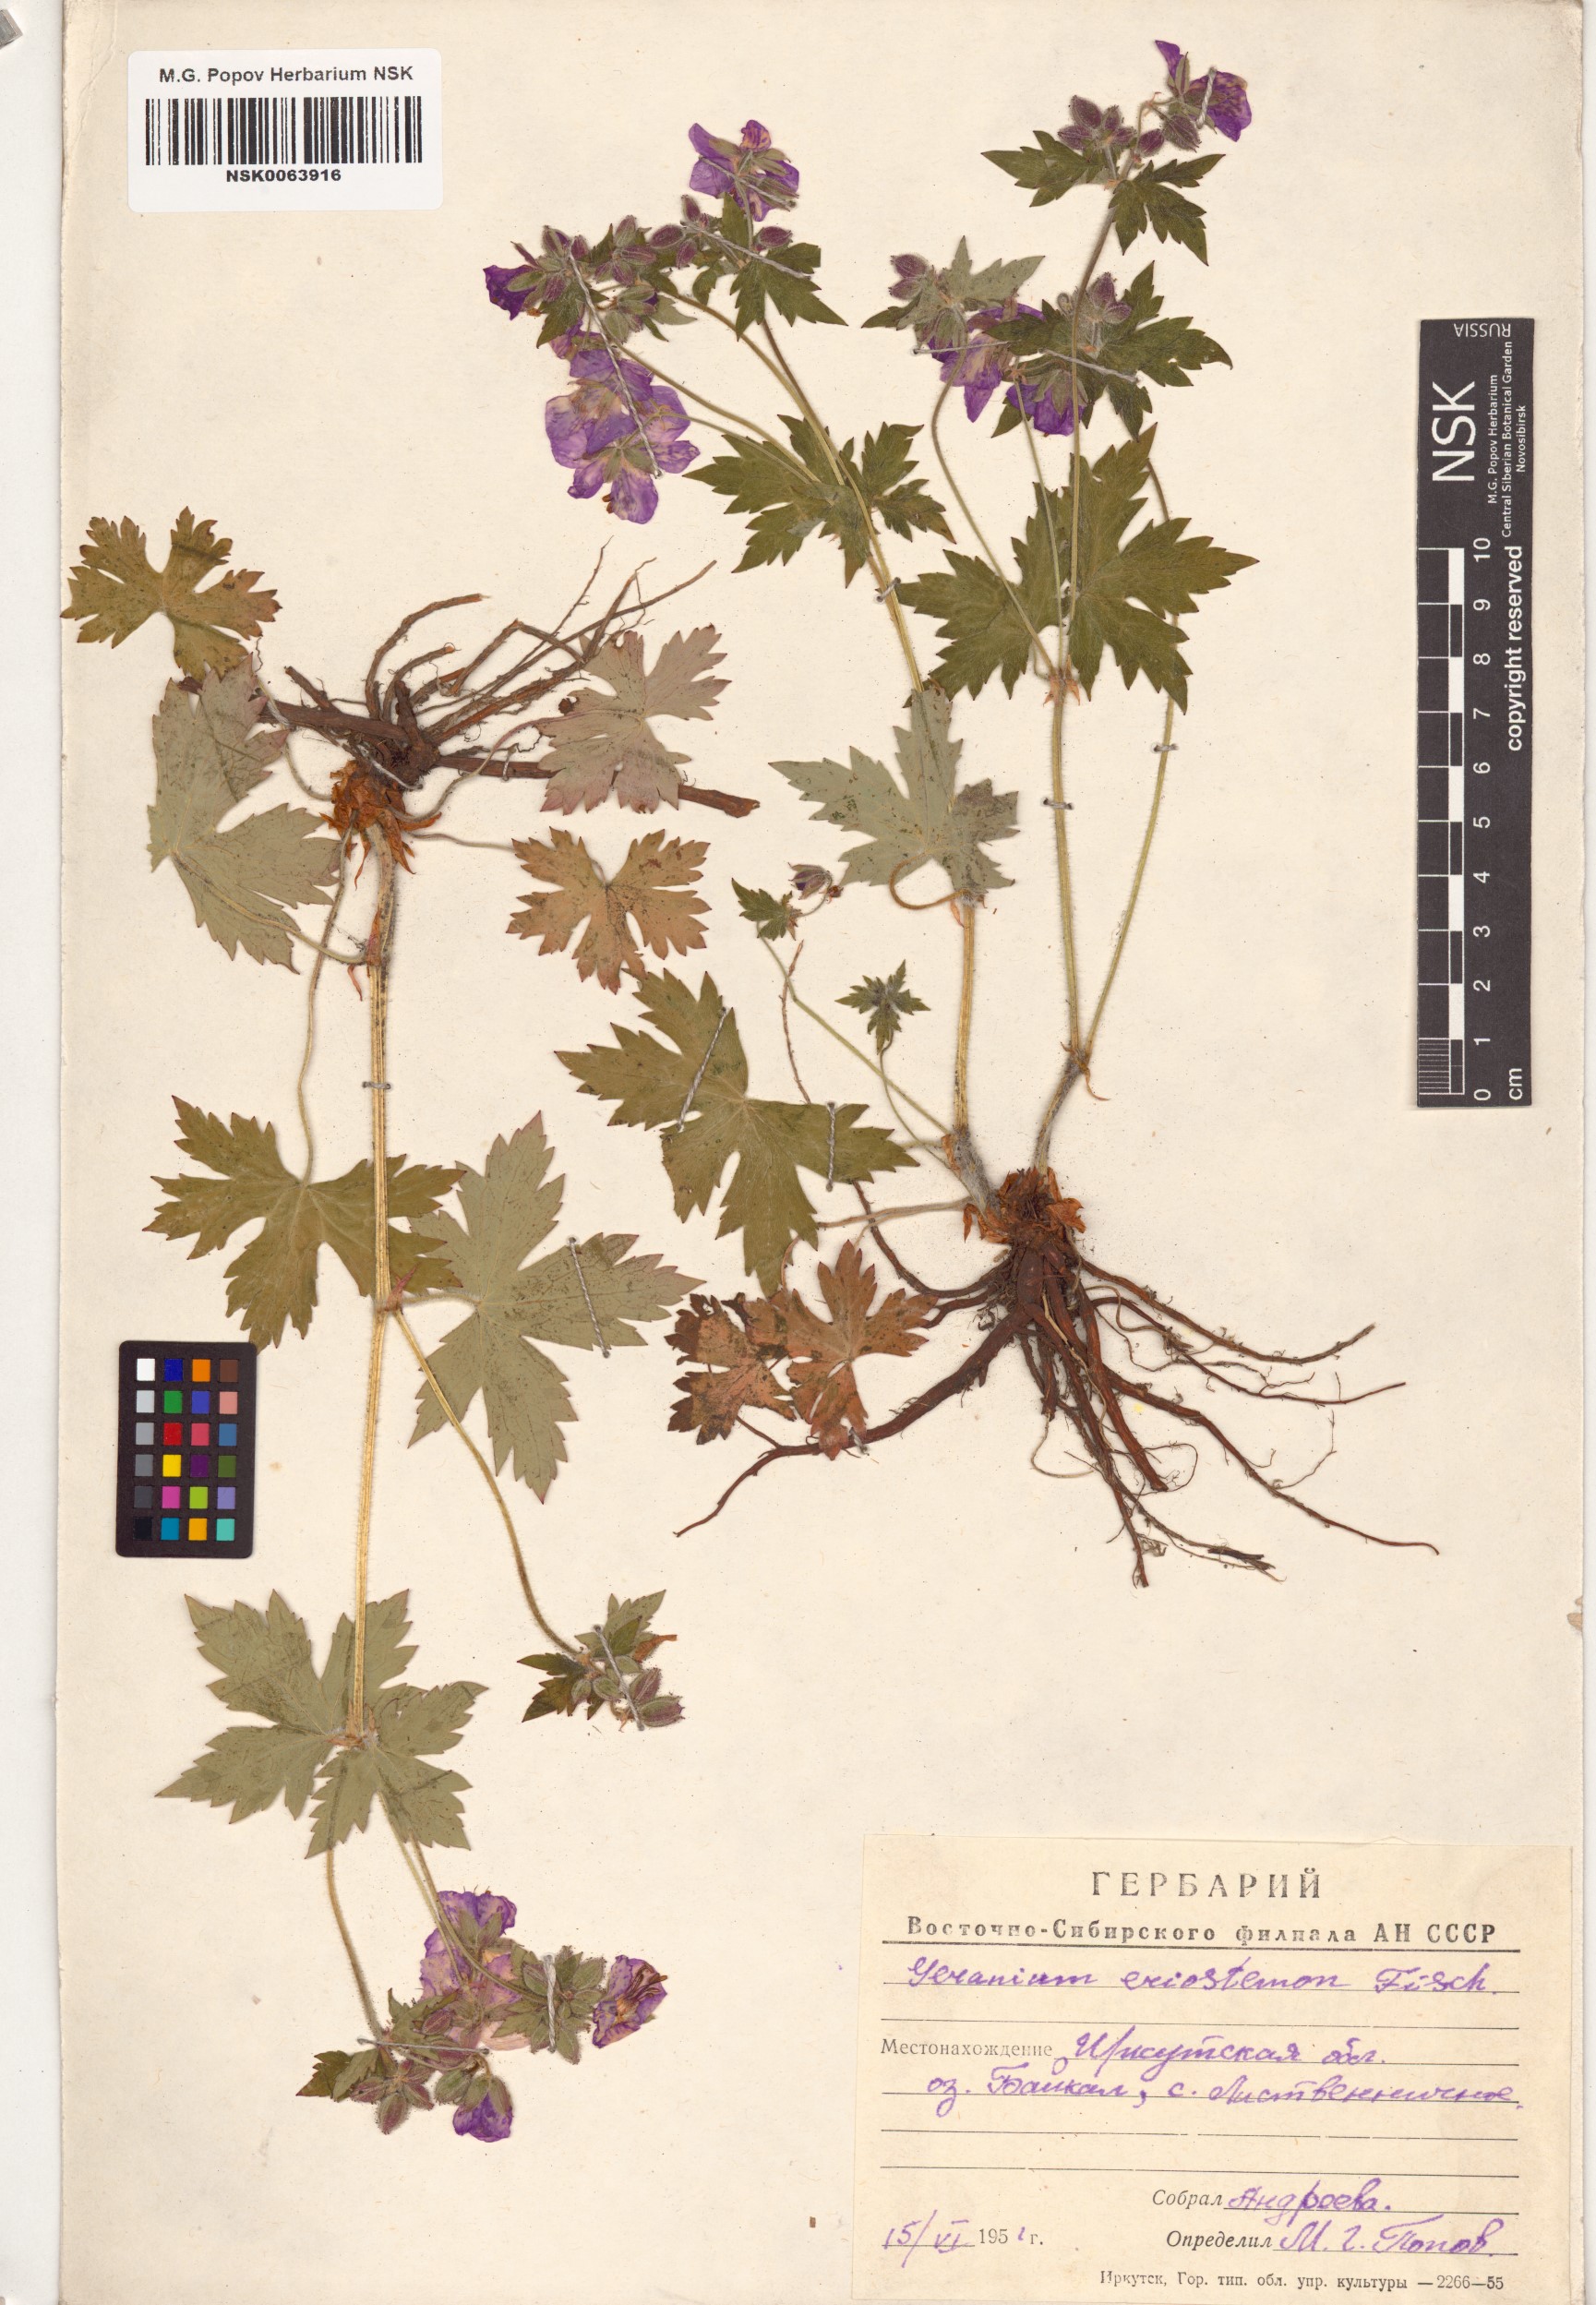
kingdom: Plantae
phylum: Tracheophyta
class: Magnoliopsida
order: Geraniales
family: Geraniaceae
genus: Geranium
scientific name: Geranium platyanthum
